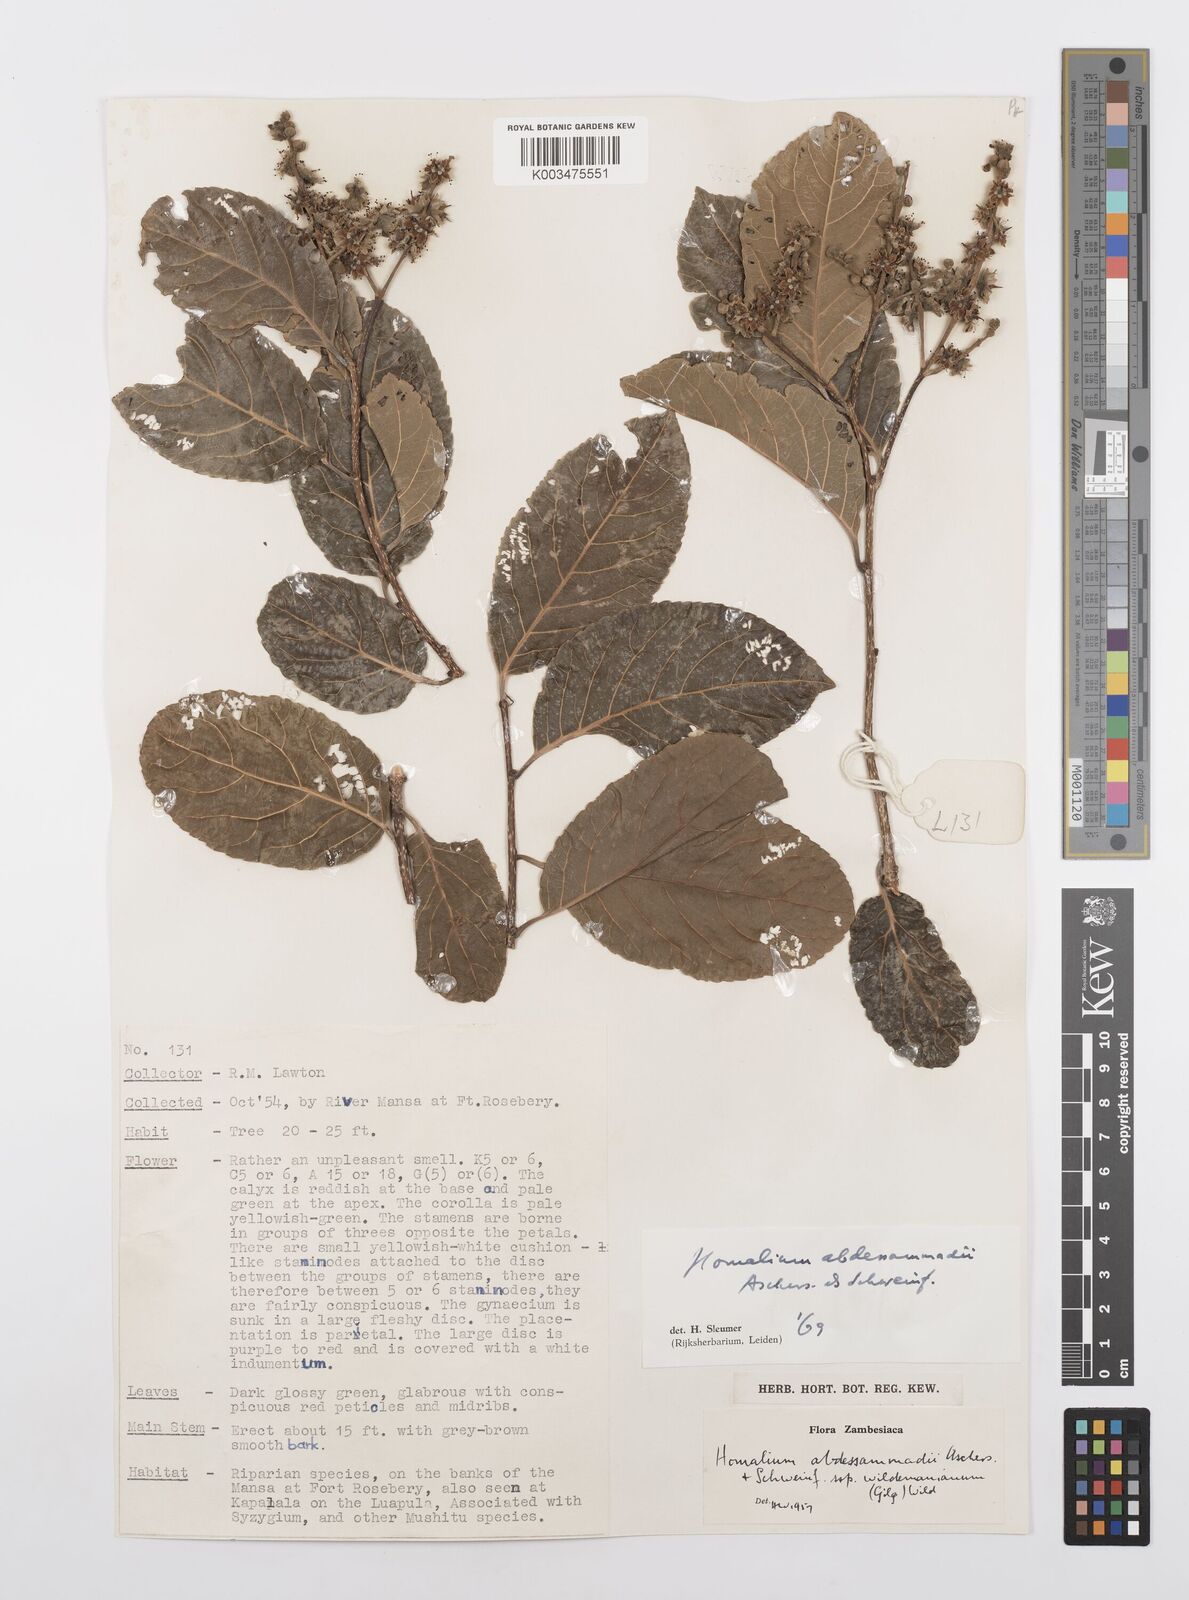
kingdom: Plantae
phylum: Tracheophyta
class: Magnoliopsida
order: Malpighiales
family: Salicaceae
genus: Homalium
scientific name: Homalium abdessammadii
